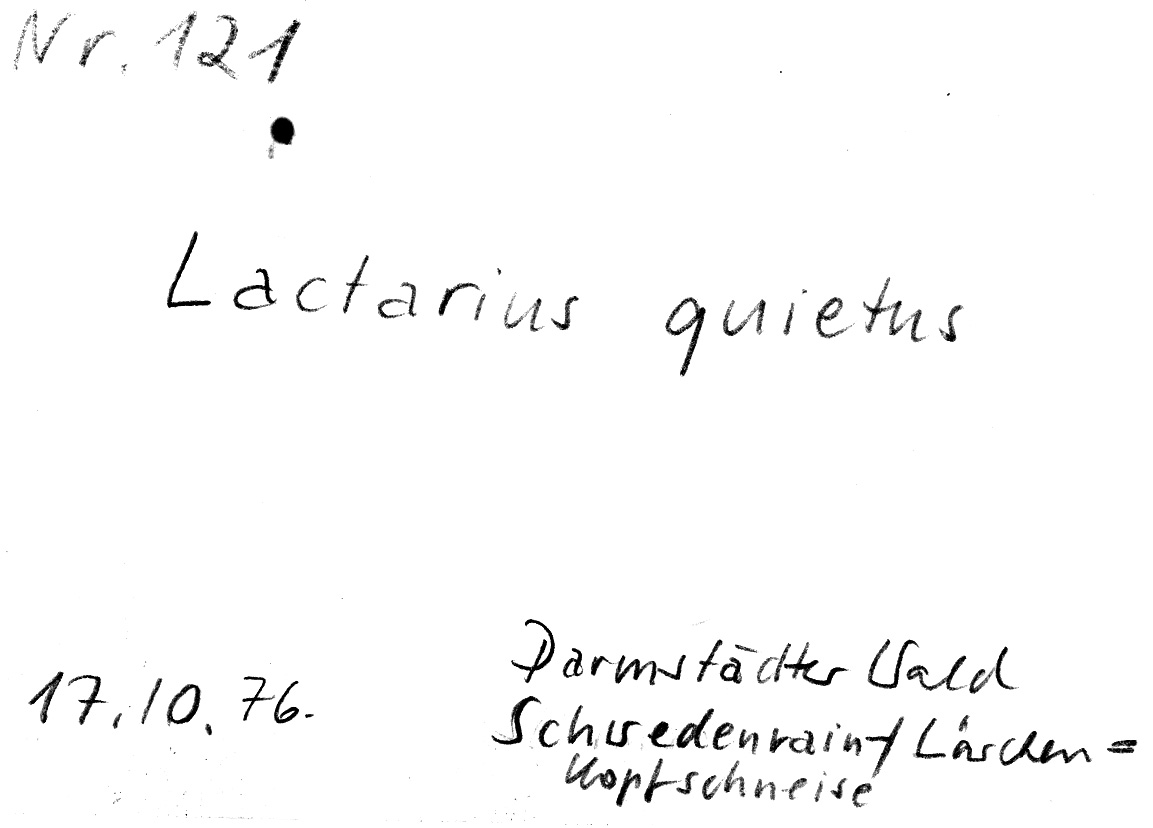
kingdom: Fungi
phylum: Basidiomycota
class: Agaricomycetes
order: Russulales
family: Russulaceae
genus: Lactarius
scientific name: Lactarius quietus
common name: Oak milk-cap
